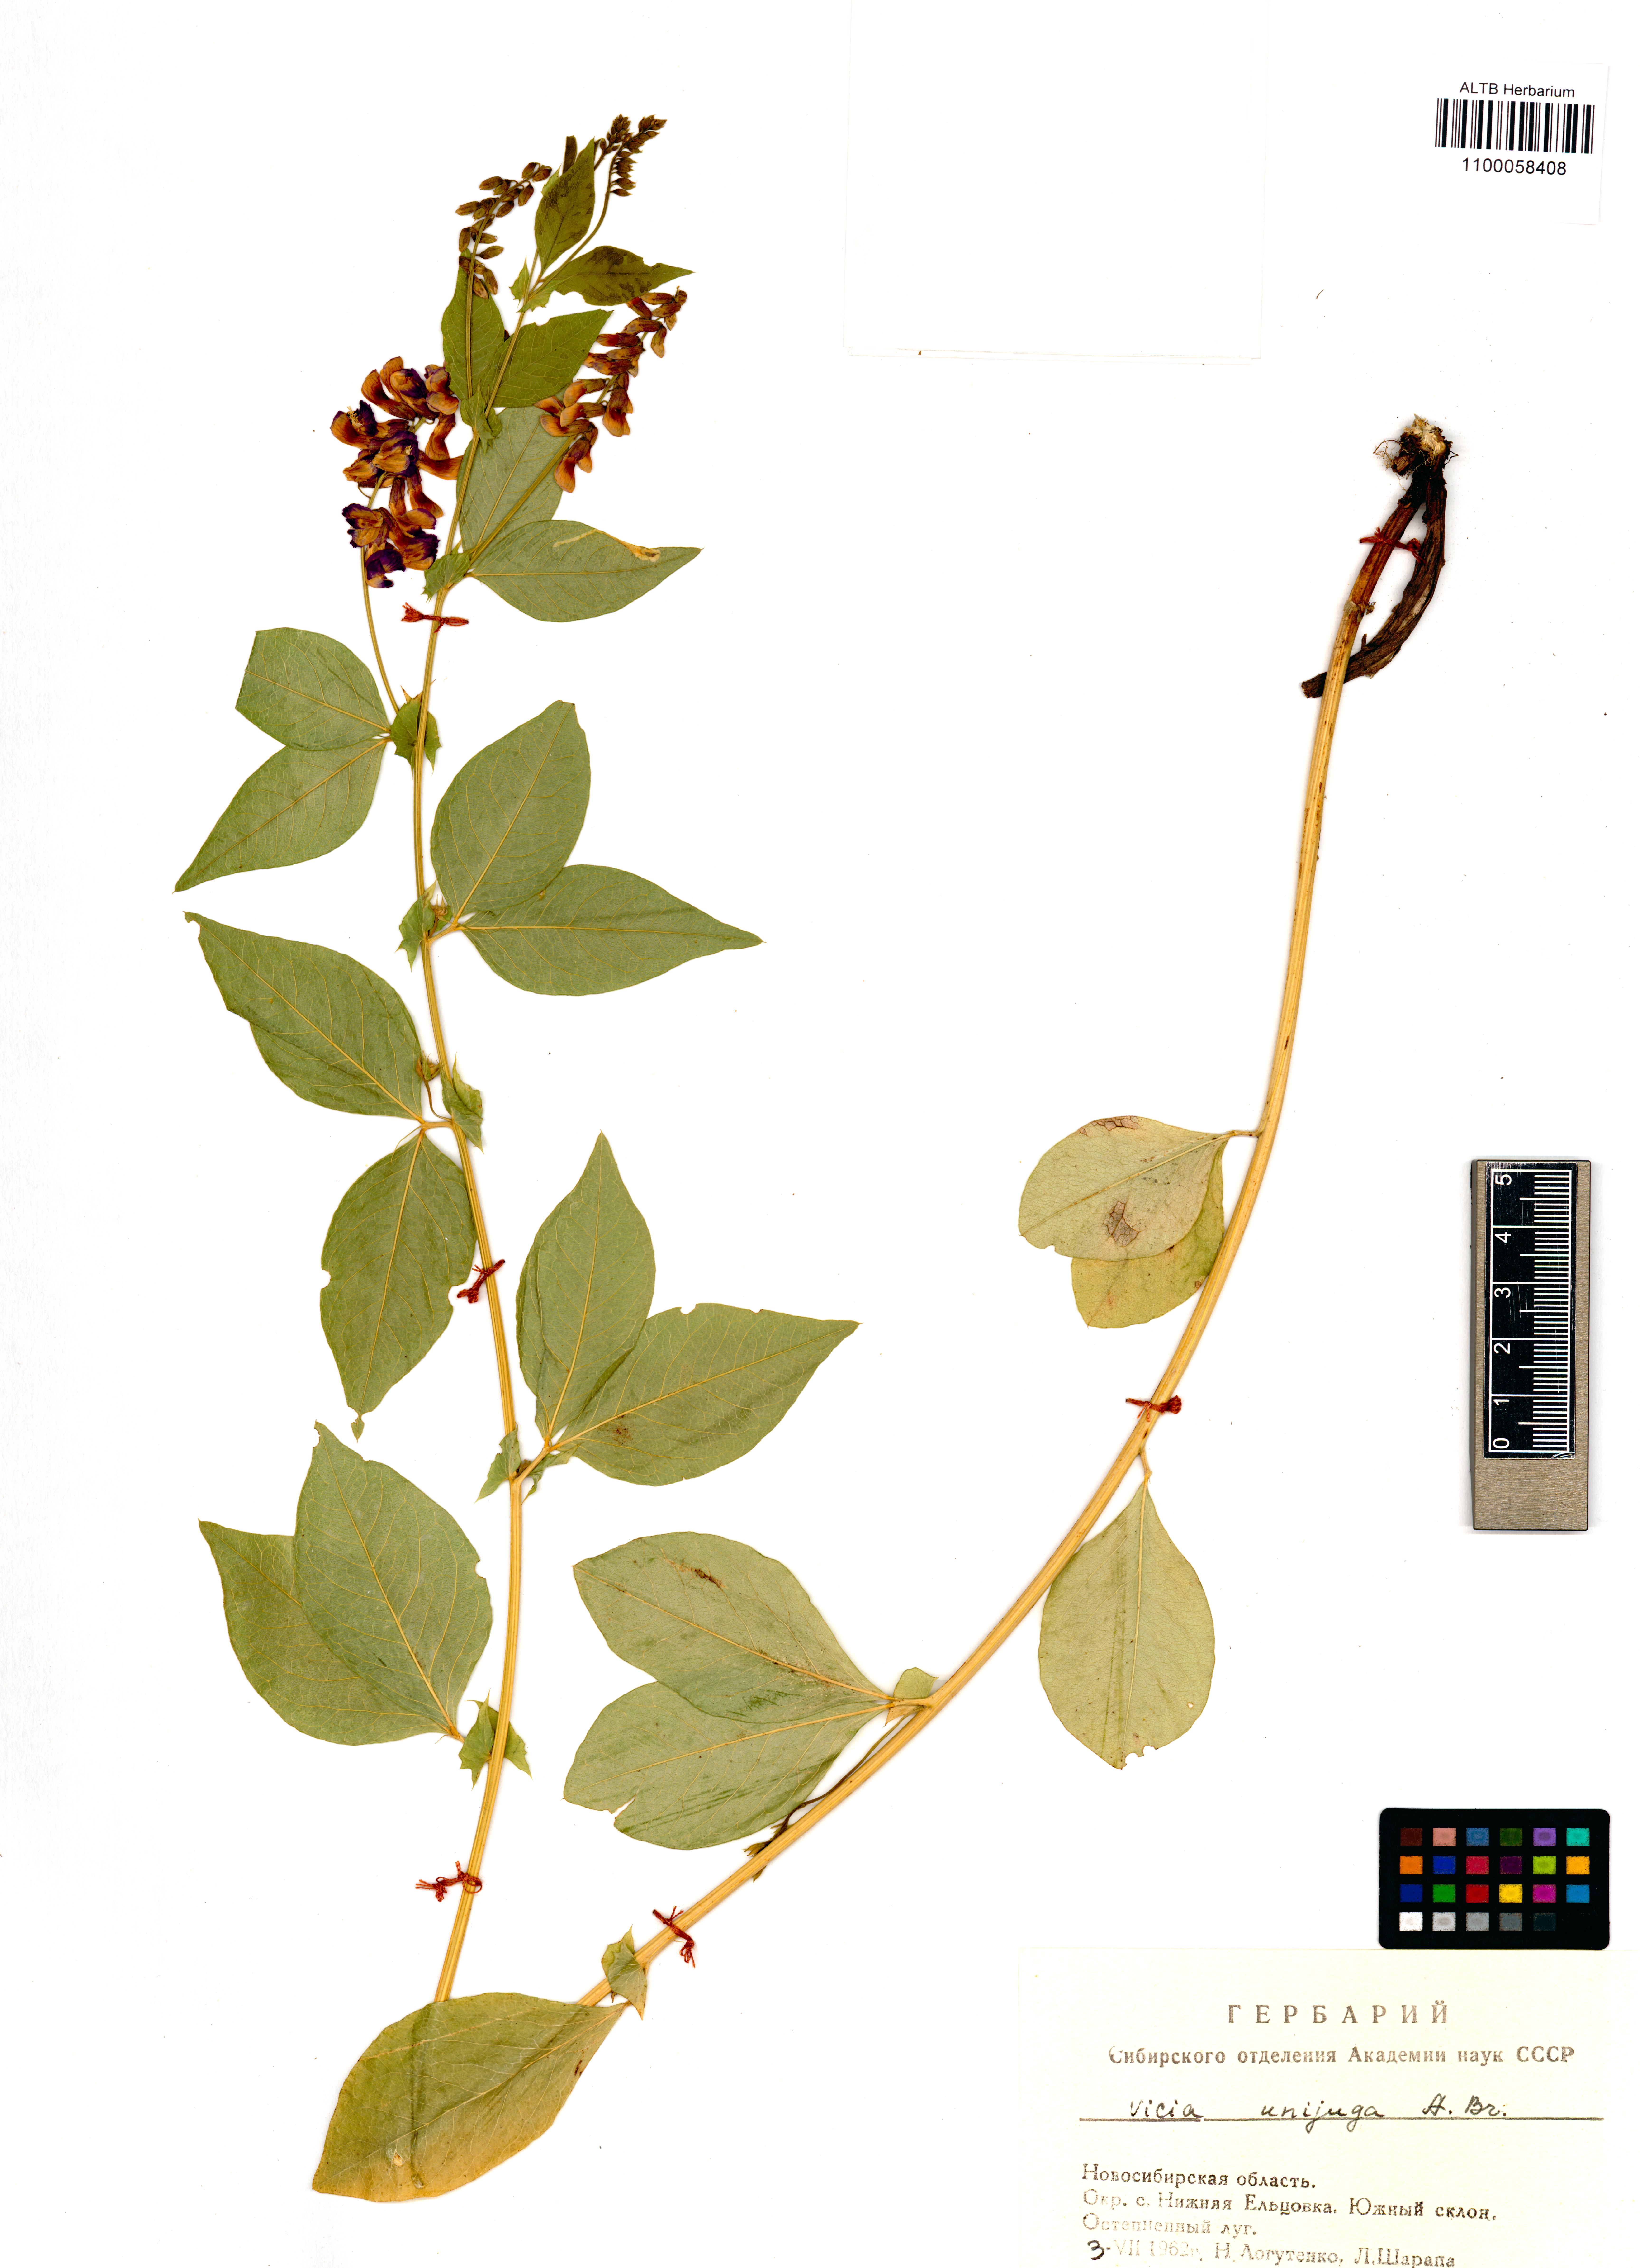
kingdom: Plantae
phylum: Tracheophyta
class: Magnoliopsida
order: Fabales
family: Fabaceae
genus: Vicia
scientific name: Vicia unijuga
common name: Two-leaf vetch
